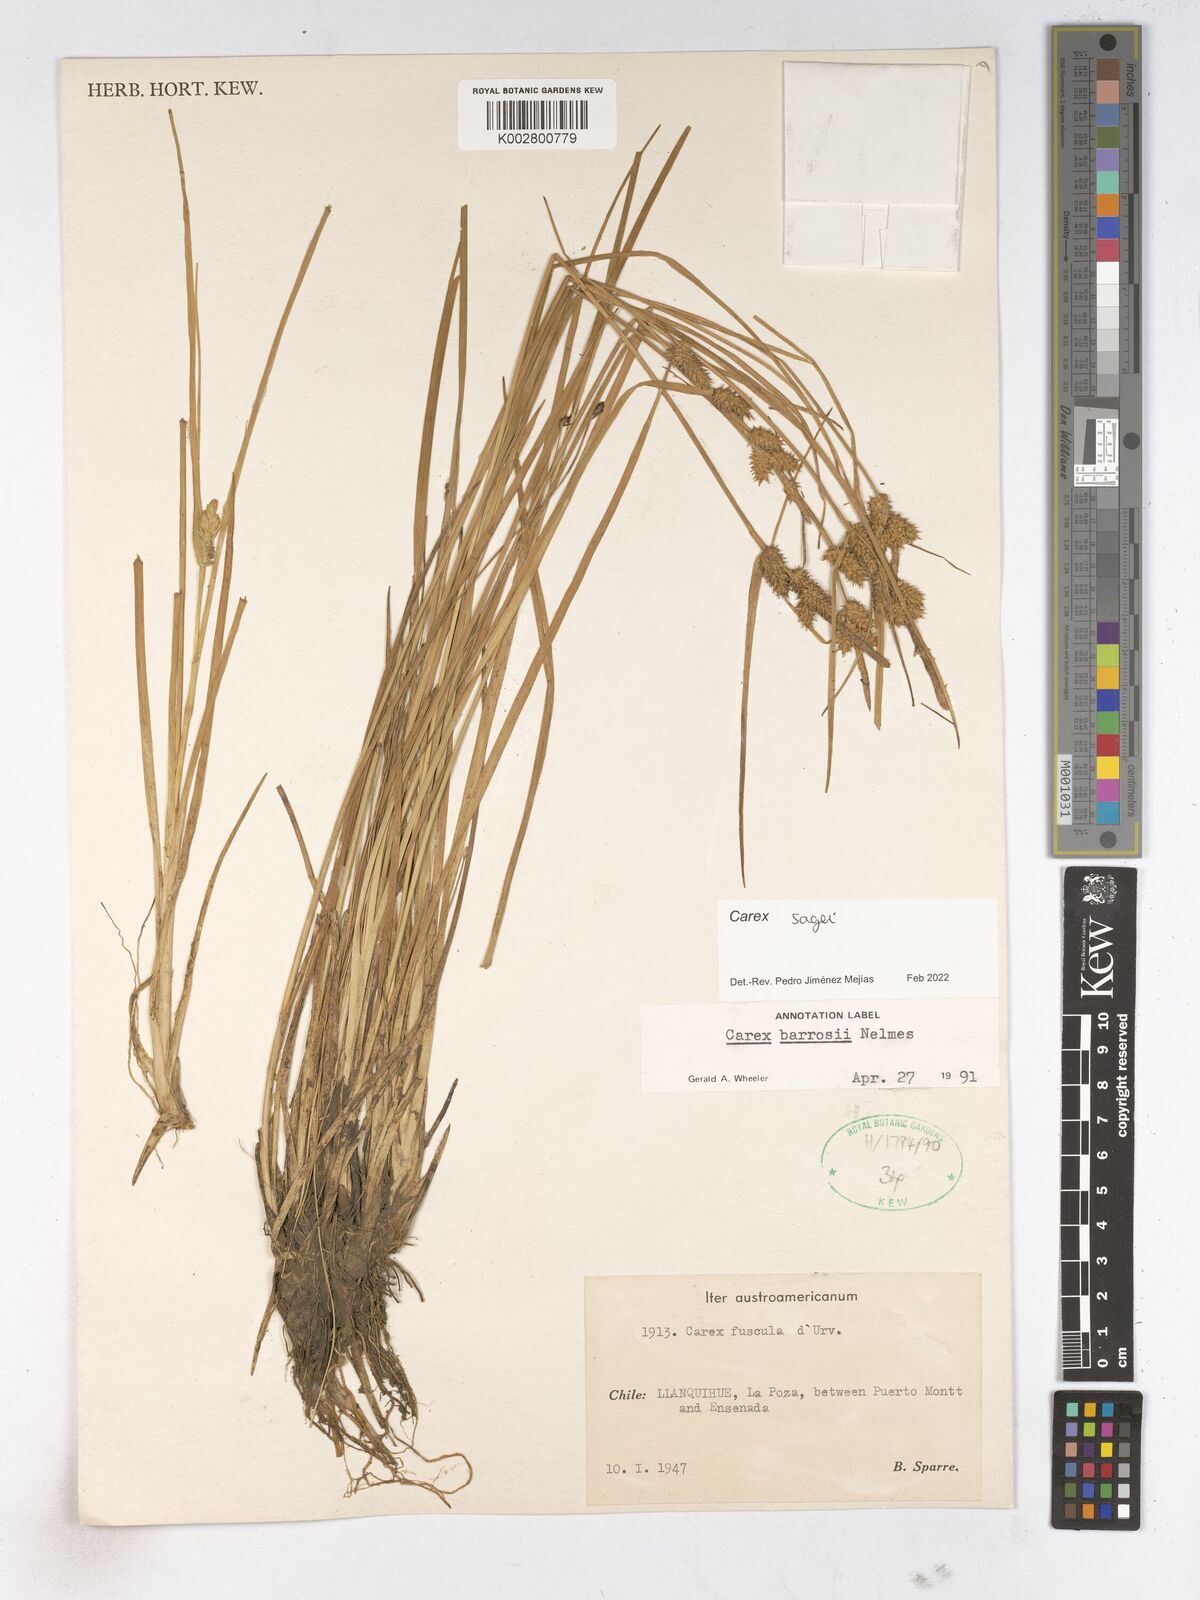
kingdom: Plantae
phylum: Tracheophyta
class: Liliopsida
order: Poales
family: Cyperaceae
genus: Carex
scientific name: Carex
